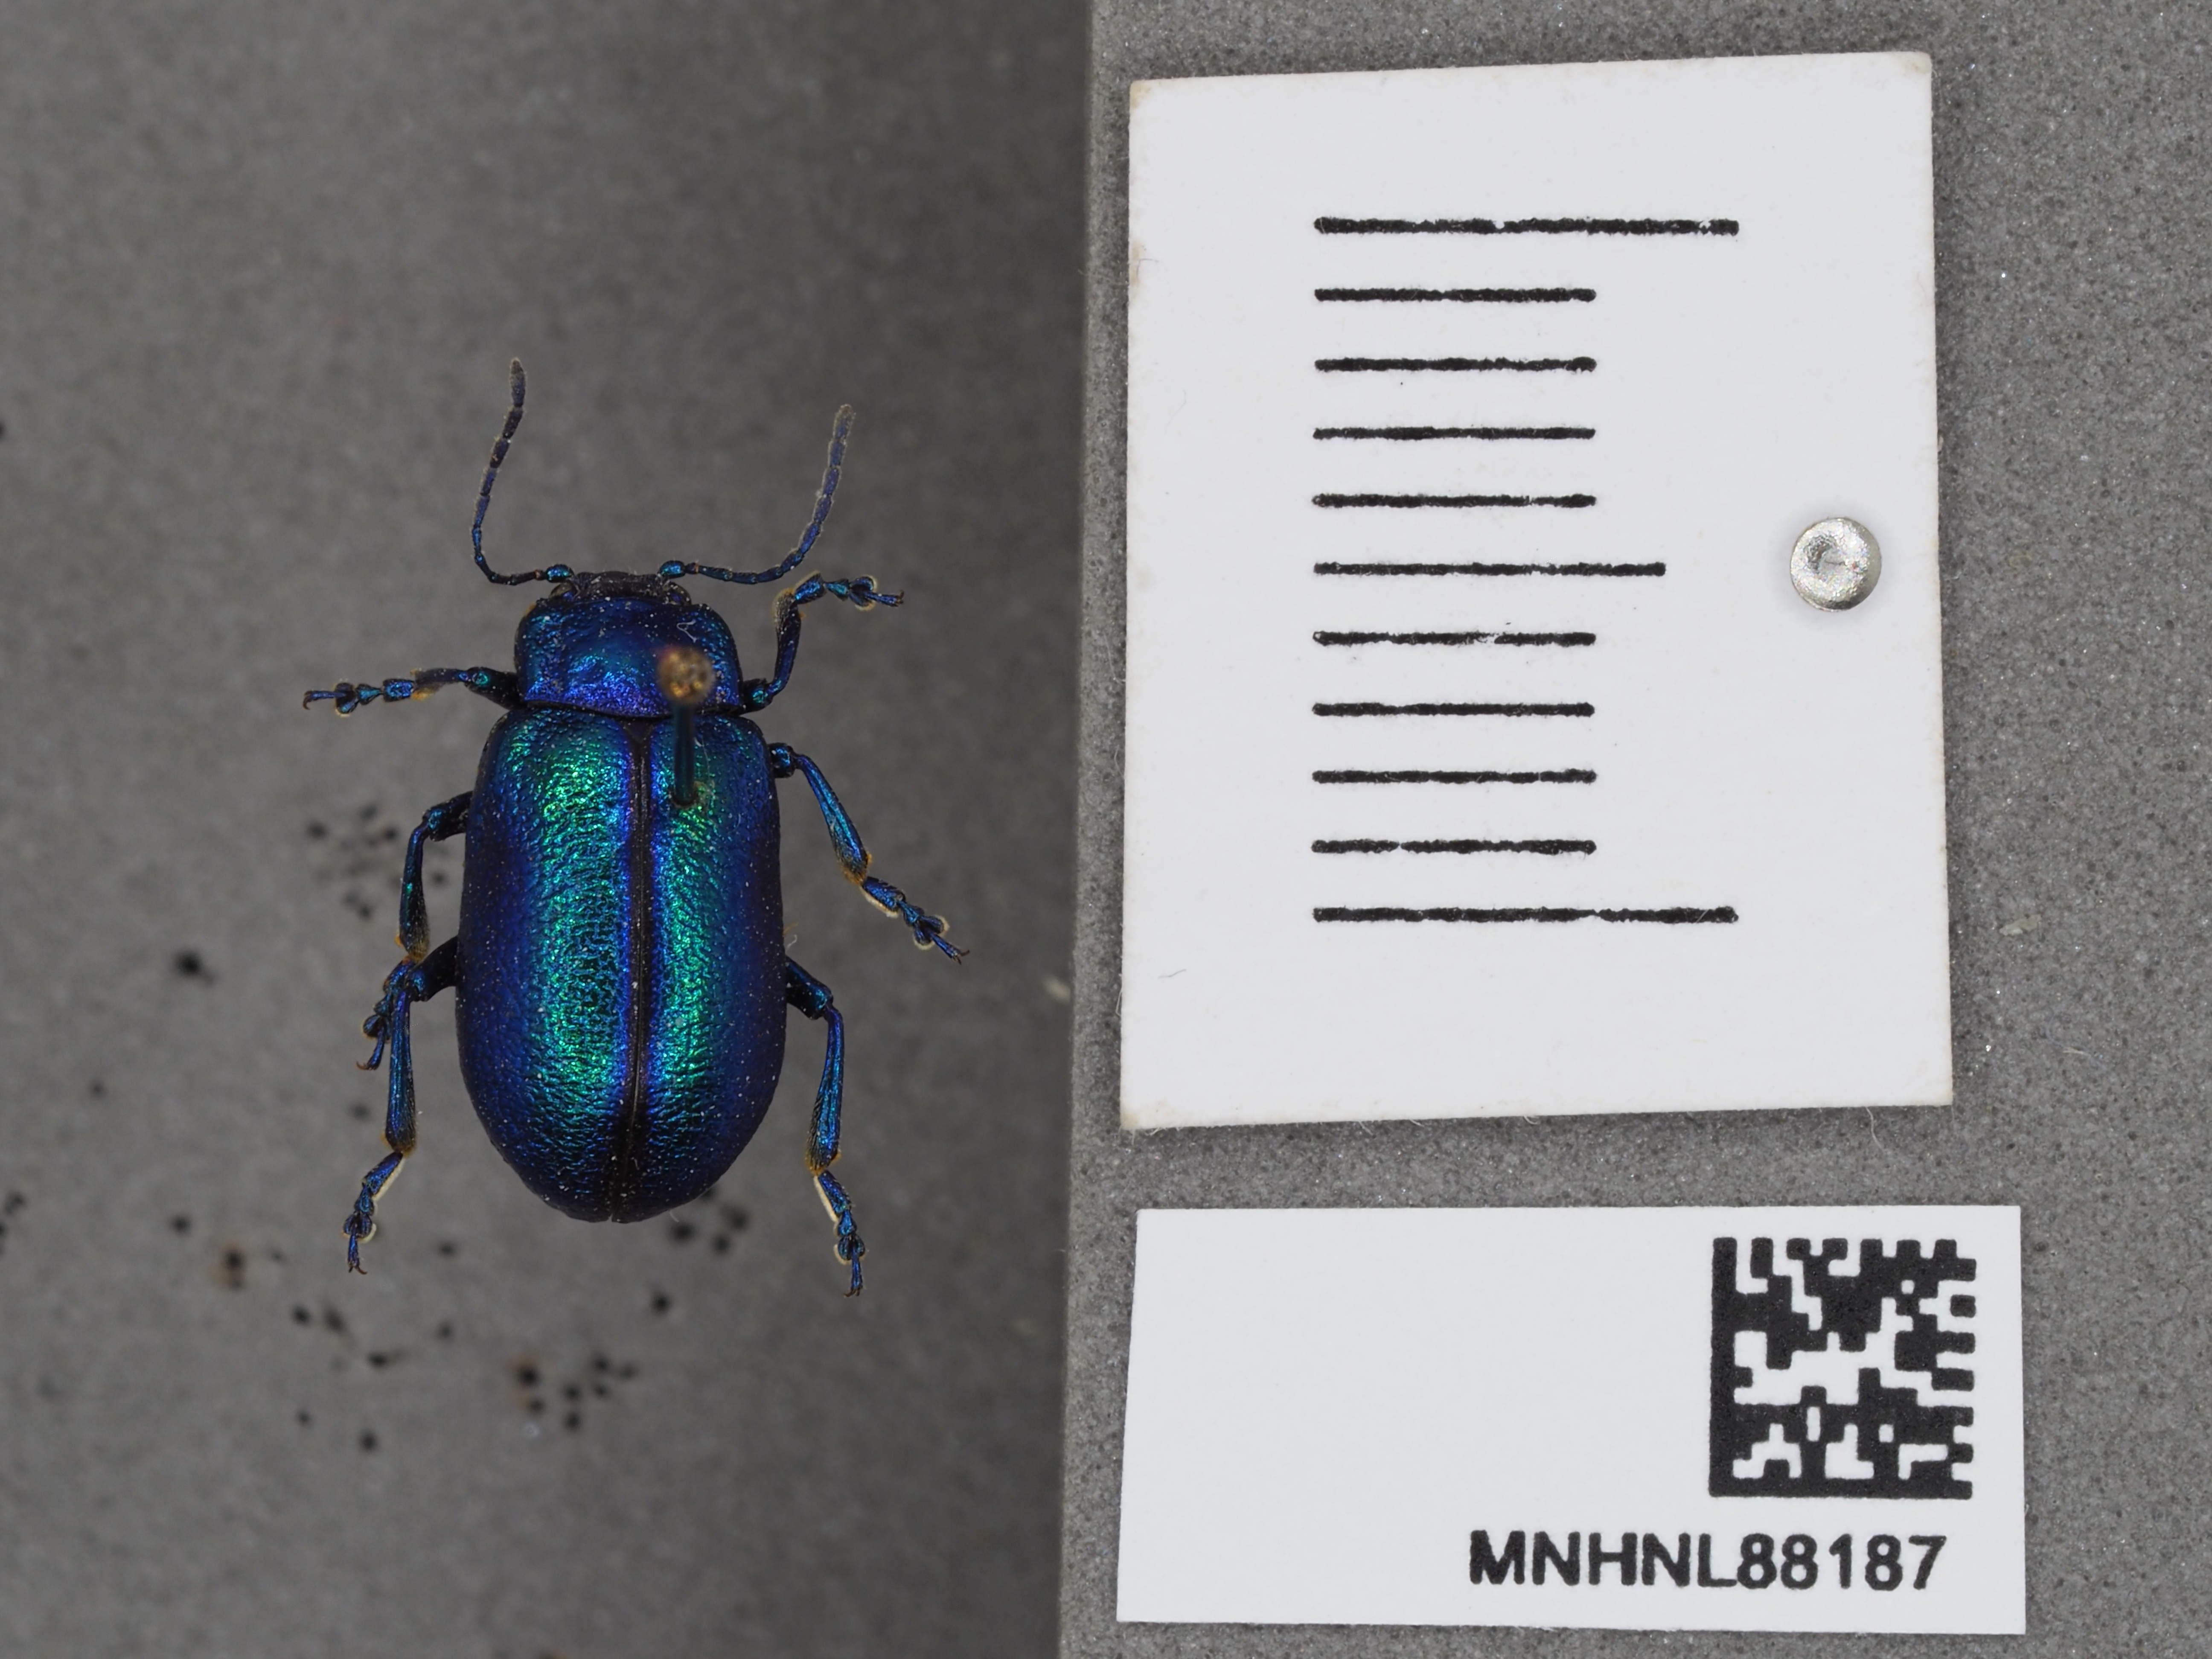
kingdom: Animalia
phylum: Arthropoda
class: Insecta
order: Coleoptera
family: Chrysomelidae
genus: Oreina
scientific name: Oreina cacaliae
